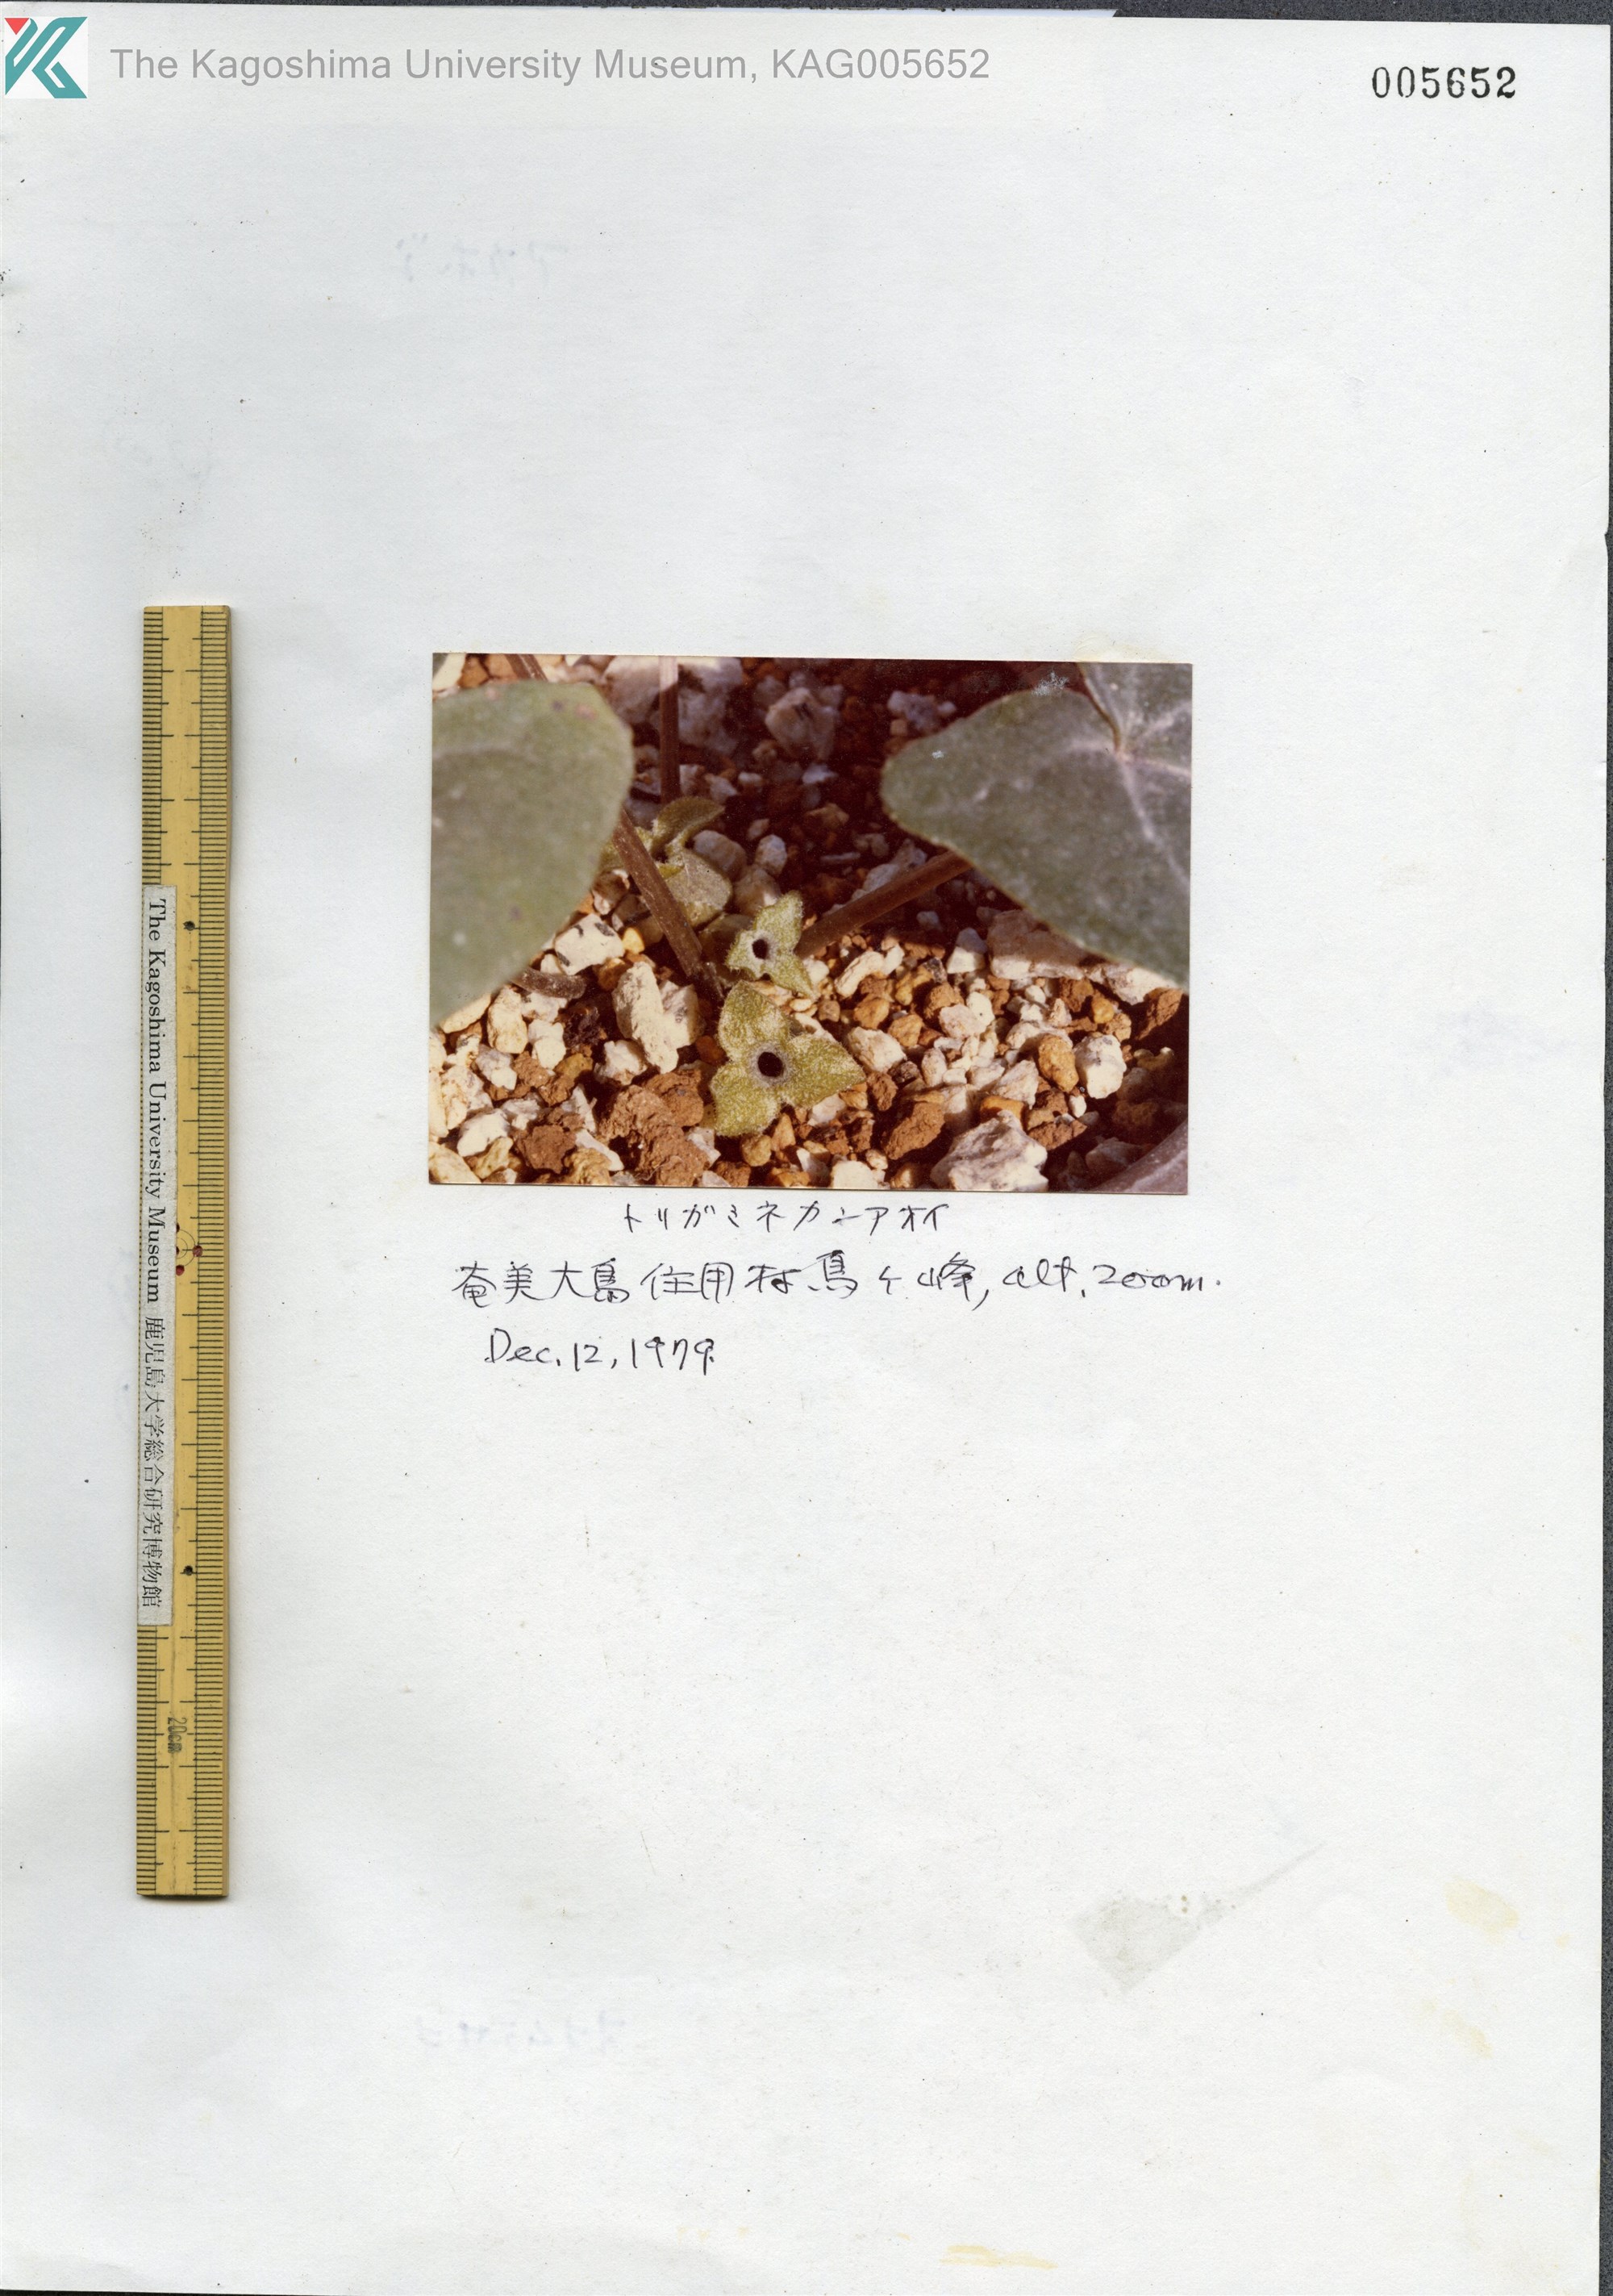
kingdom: Plantae
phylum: Tracheophyta
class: Magnoliopsida
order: Piperales
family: Aristolochiaceae
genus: Asarum
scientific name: Asarum pellucidum
